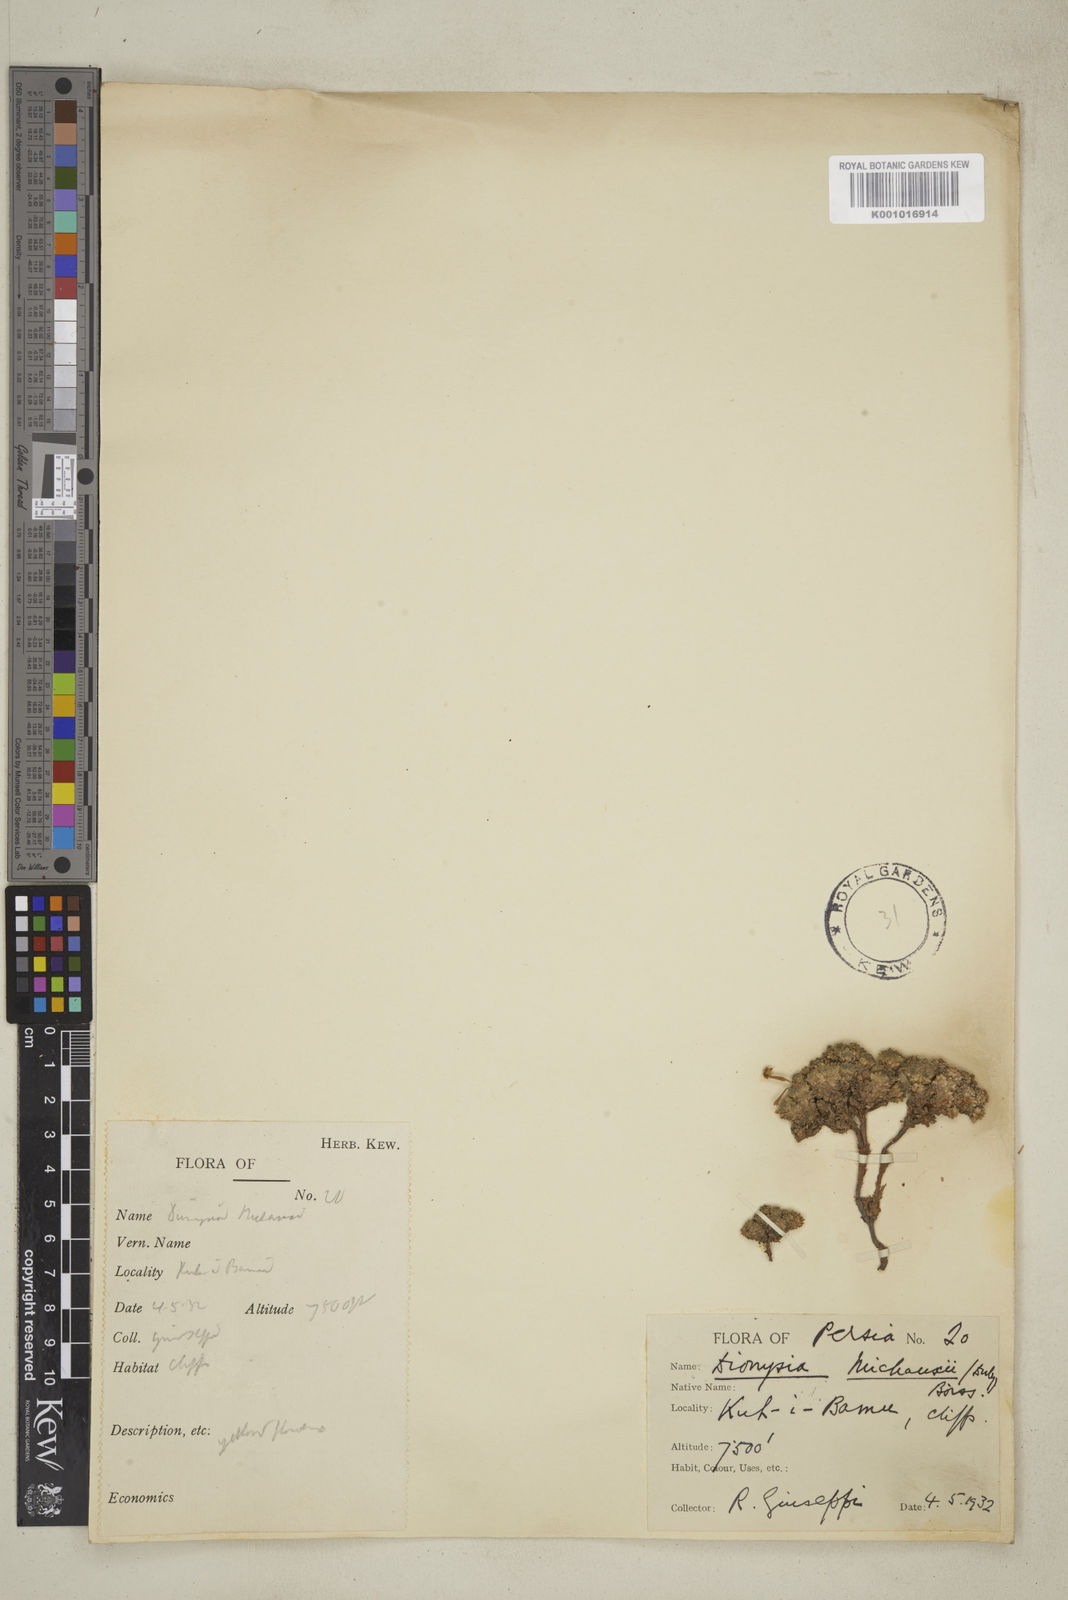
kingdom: Plantae
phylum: Tracheophyta
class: Magnoliopsida
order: Gentianales
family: Apocynaceae
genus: Ditassa
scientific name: Ditassa hispida
